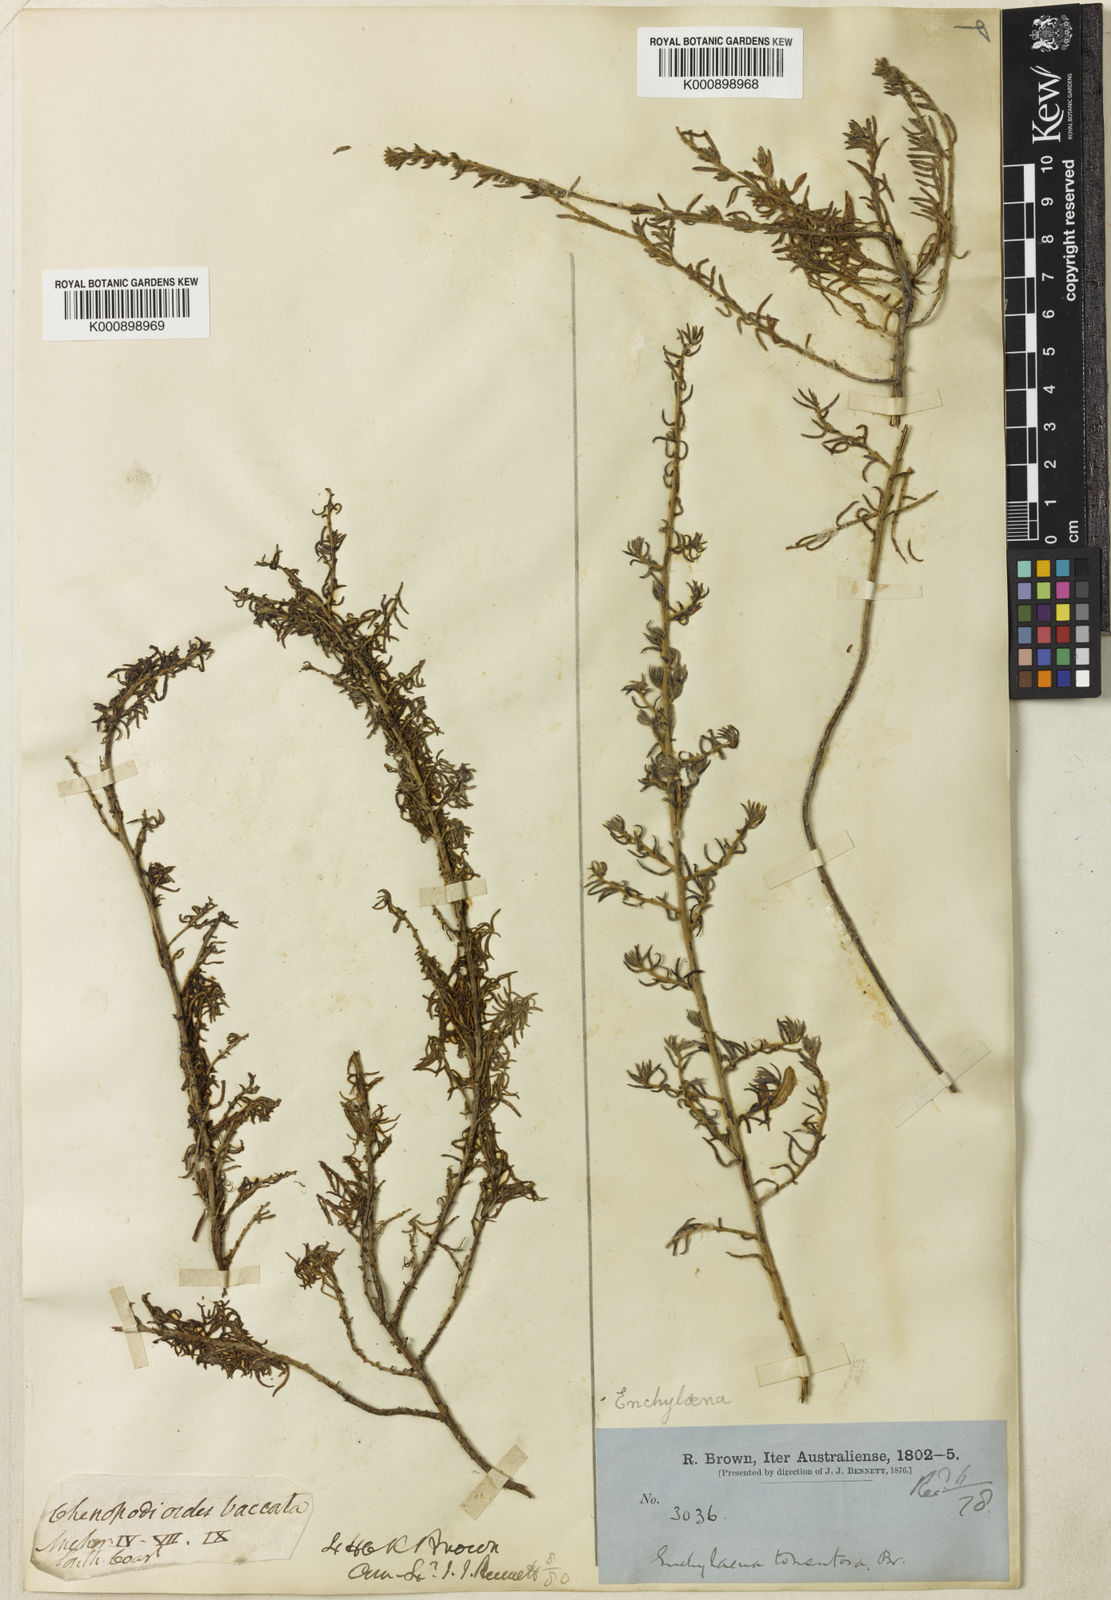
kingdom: Plantae
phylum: Tracheophyta
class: Magnoliopsida
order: Caryophyllales
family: Amaranthaceae
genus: Maireana
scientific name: Maireana tomentosa
